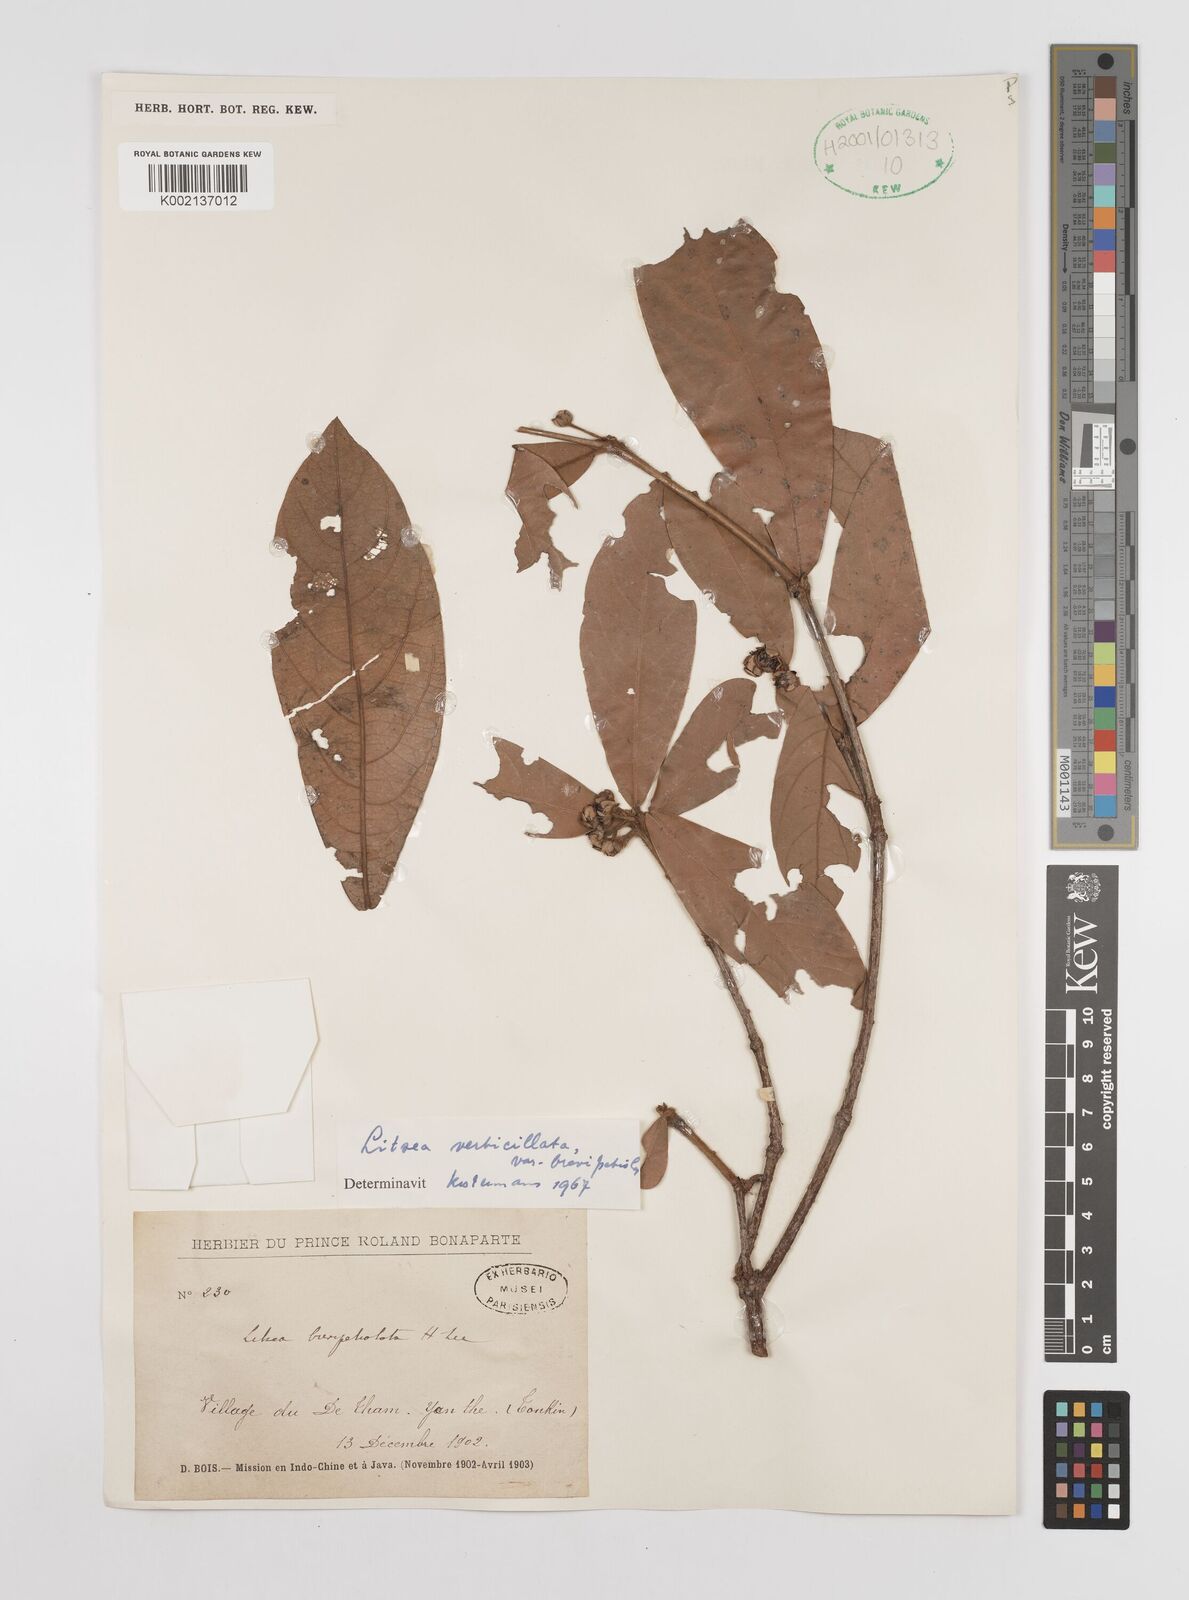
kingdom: Plantae
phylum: Tracheophyta
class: Magnoliopsida
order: Laurales
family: Lauraceae
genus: Litsea
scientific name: Litsea verticillata
